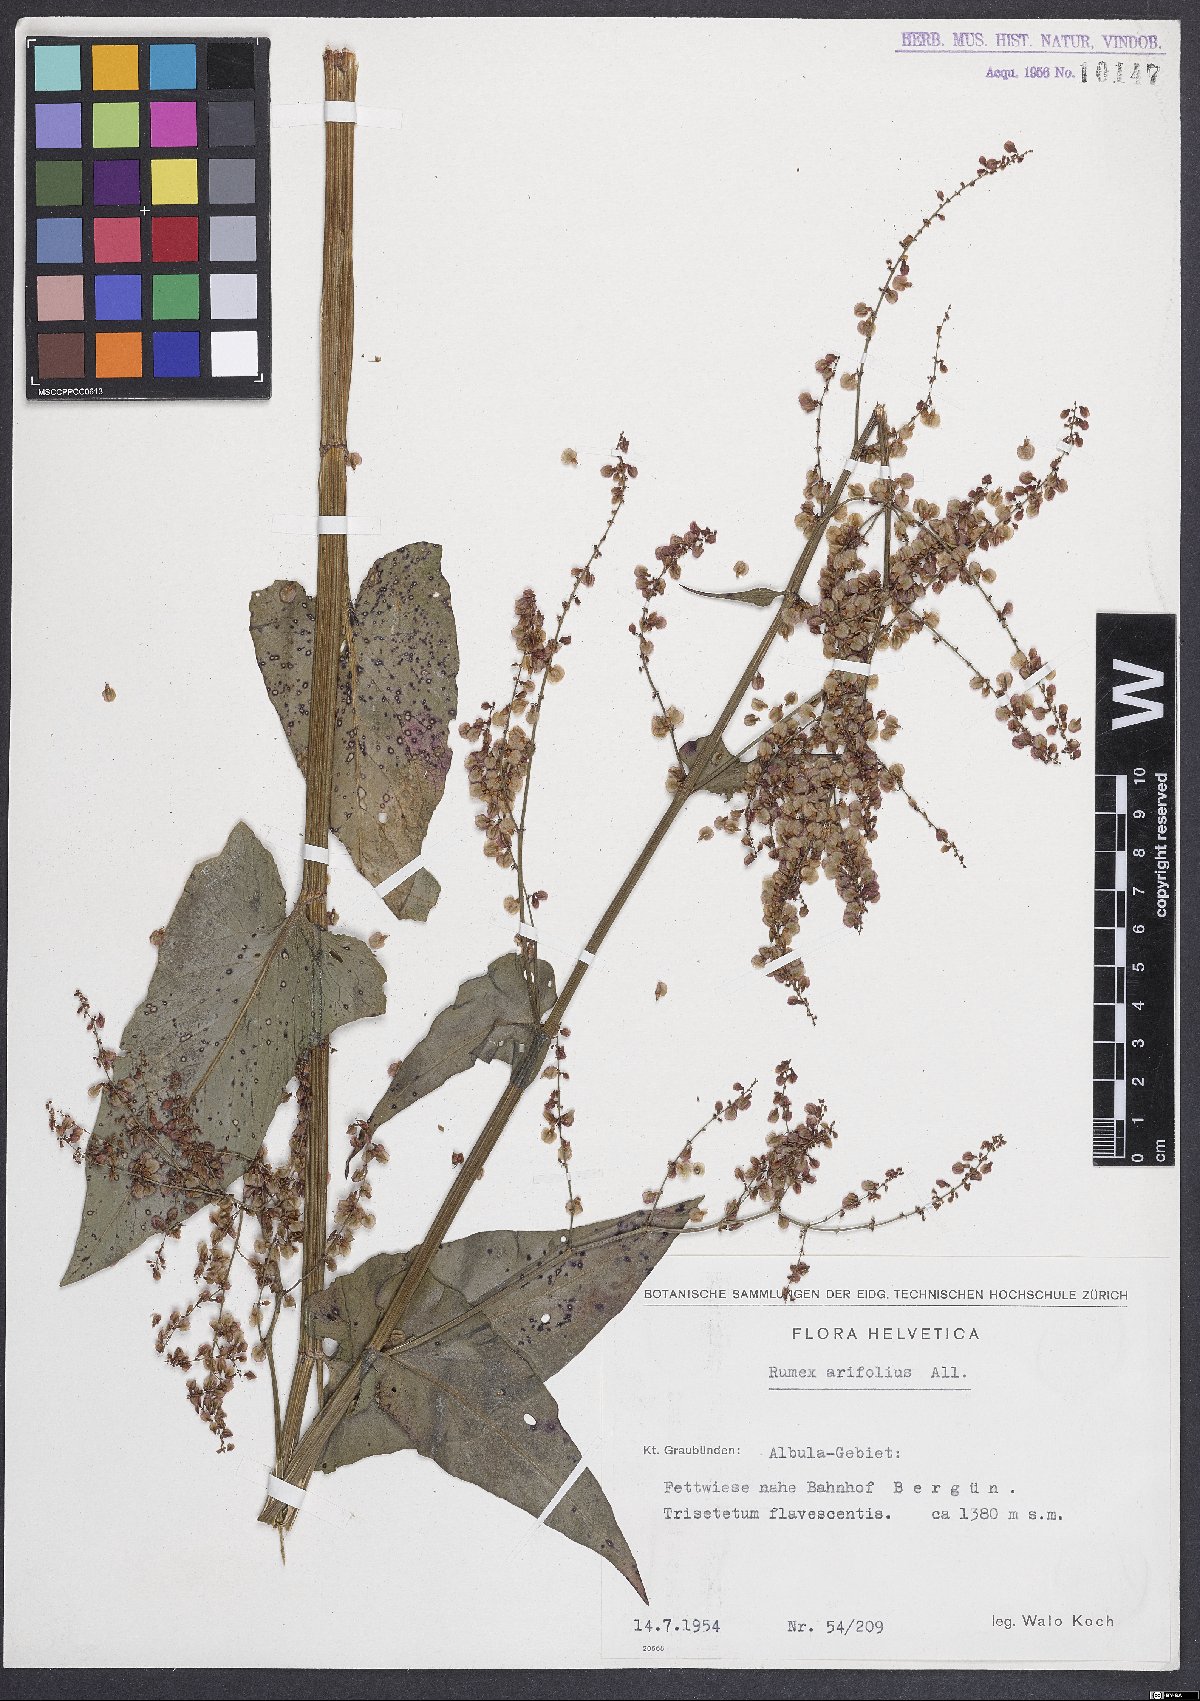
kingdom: Plantae
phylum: Tracheophyta
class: Magnoliopsida
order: Caryophyllales
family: Polygonaceae
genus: Rumex
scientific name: Rumex arifolius
